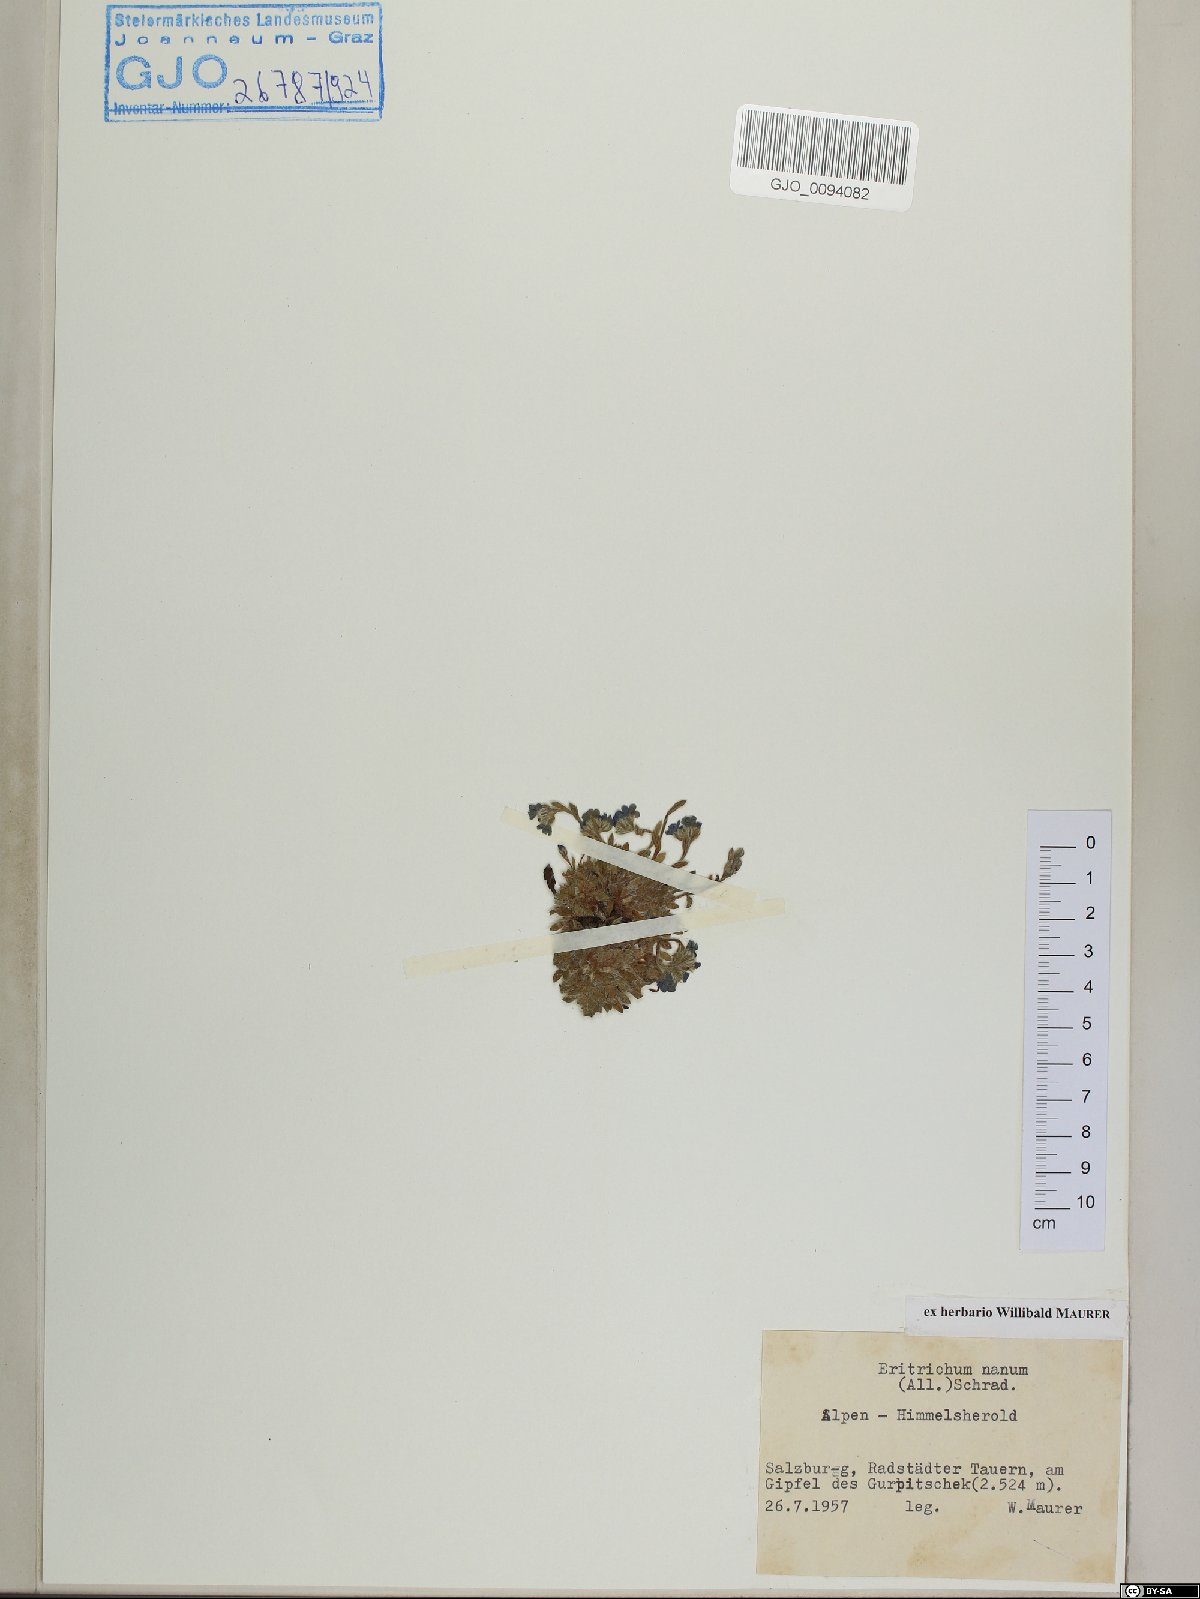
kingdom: Plantae
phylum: Tracheophyta
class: Magnoliopsida
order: Boraginales
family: Boraginaceae
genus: Eritrichium
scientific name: Eritrichium nanum
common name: King-of-the-alps
